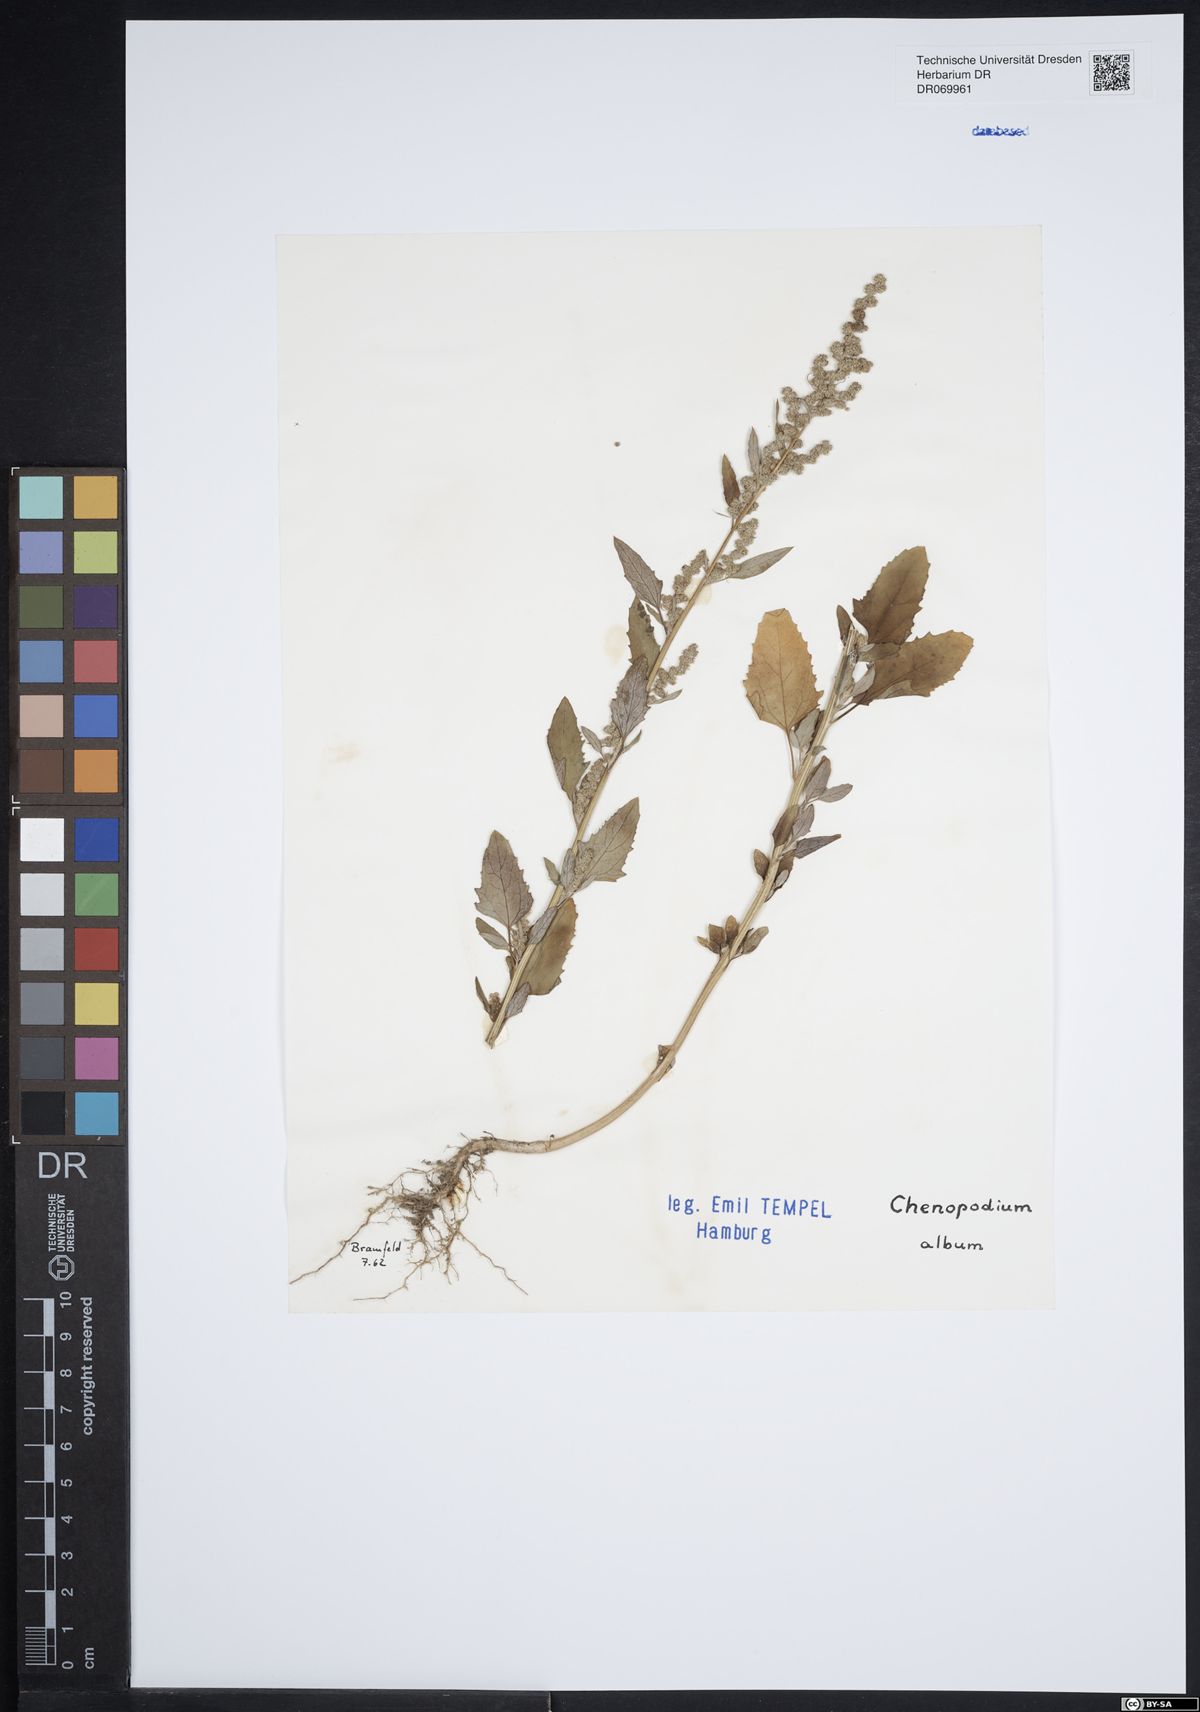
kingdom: Plantae
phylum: Tracheophyta
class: Magnoliopsida
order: Caryophyllales
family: Amaranthaceae
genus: Chenopodium
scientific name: Chenopodium album
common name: Fat-hen
